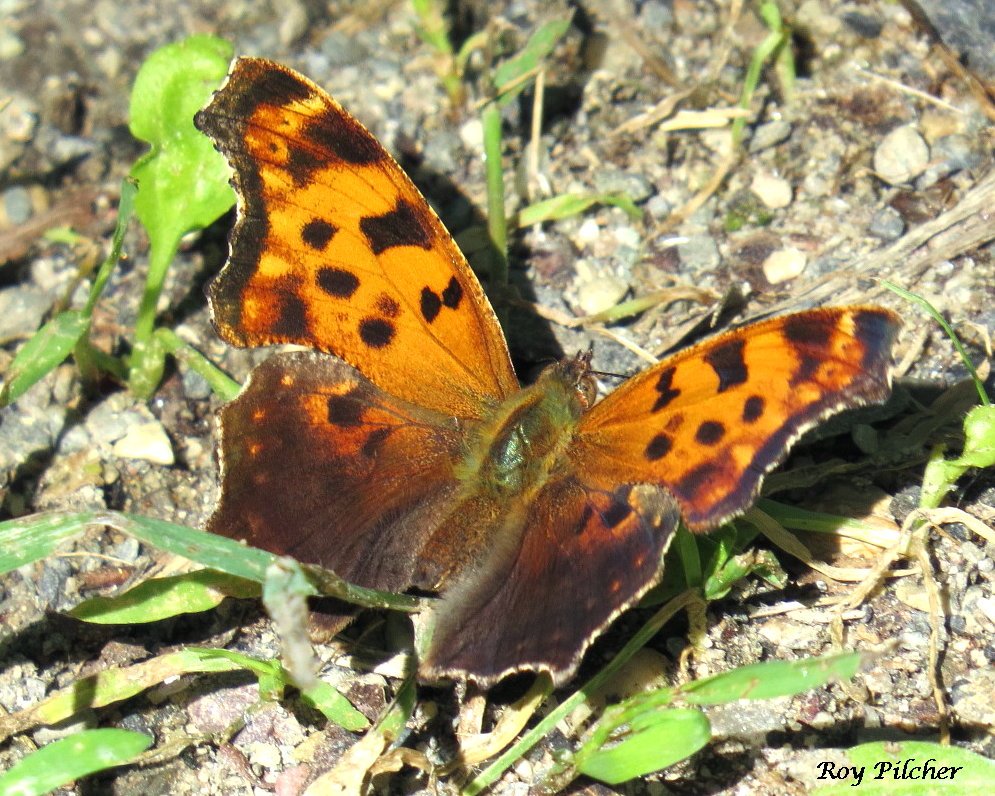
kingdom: Animalia
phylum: Arthropoda
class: Insecta
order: Lepidoptera
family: Nymphalidae
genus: Polygonia
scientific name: Polygonia comma
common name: Eastern Comma
